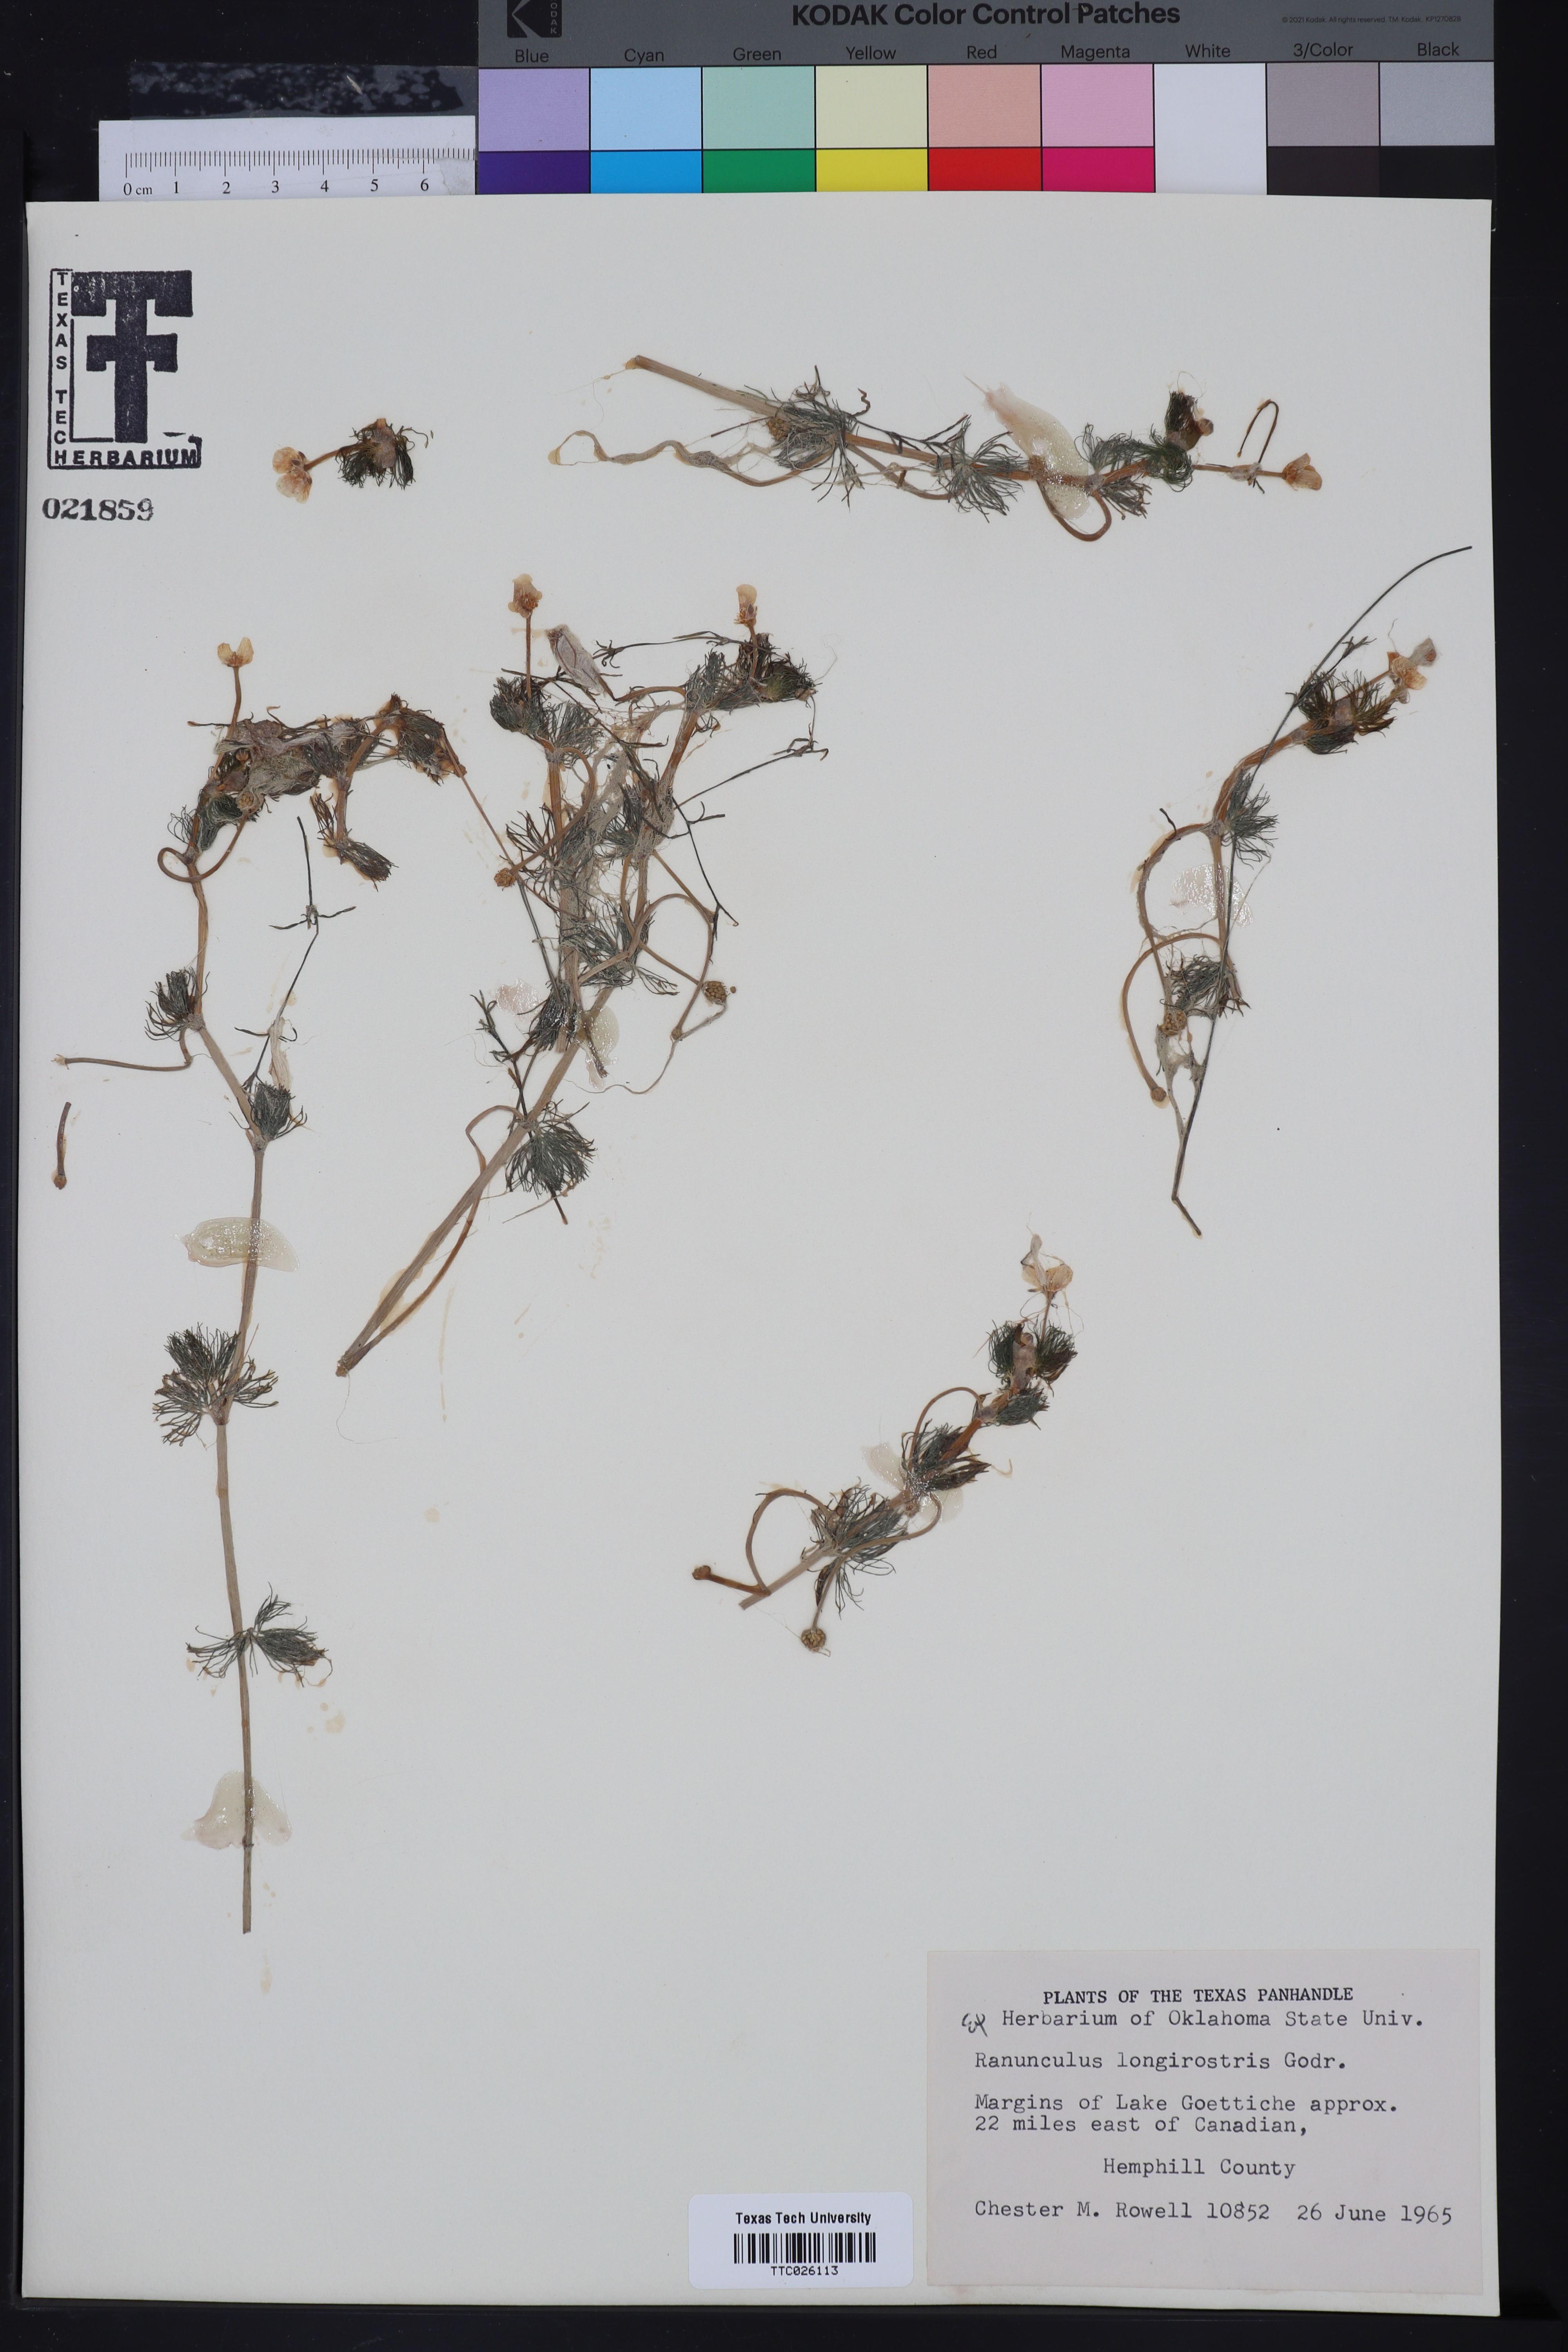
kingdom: Plantae
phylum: Tracheophyta
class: Magnoliopsida
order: Ranunculales
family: Ranunculaceae
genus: Ranunculus
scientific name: Ranunculus longirostris
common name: Curly white water-crowfoot
